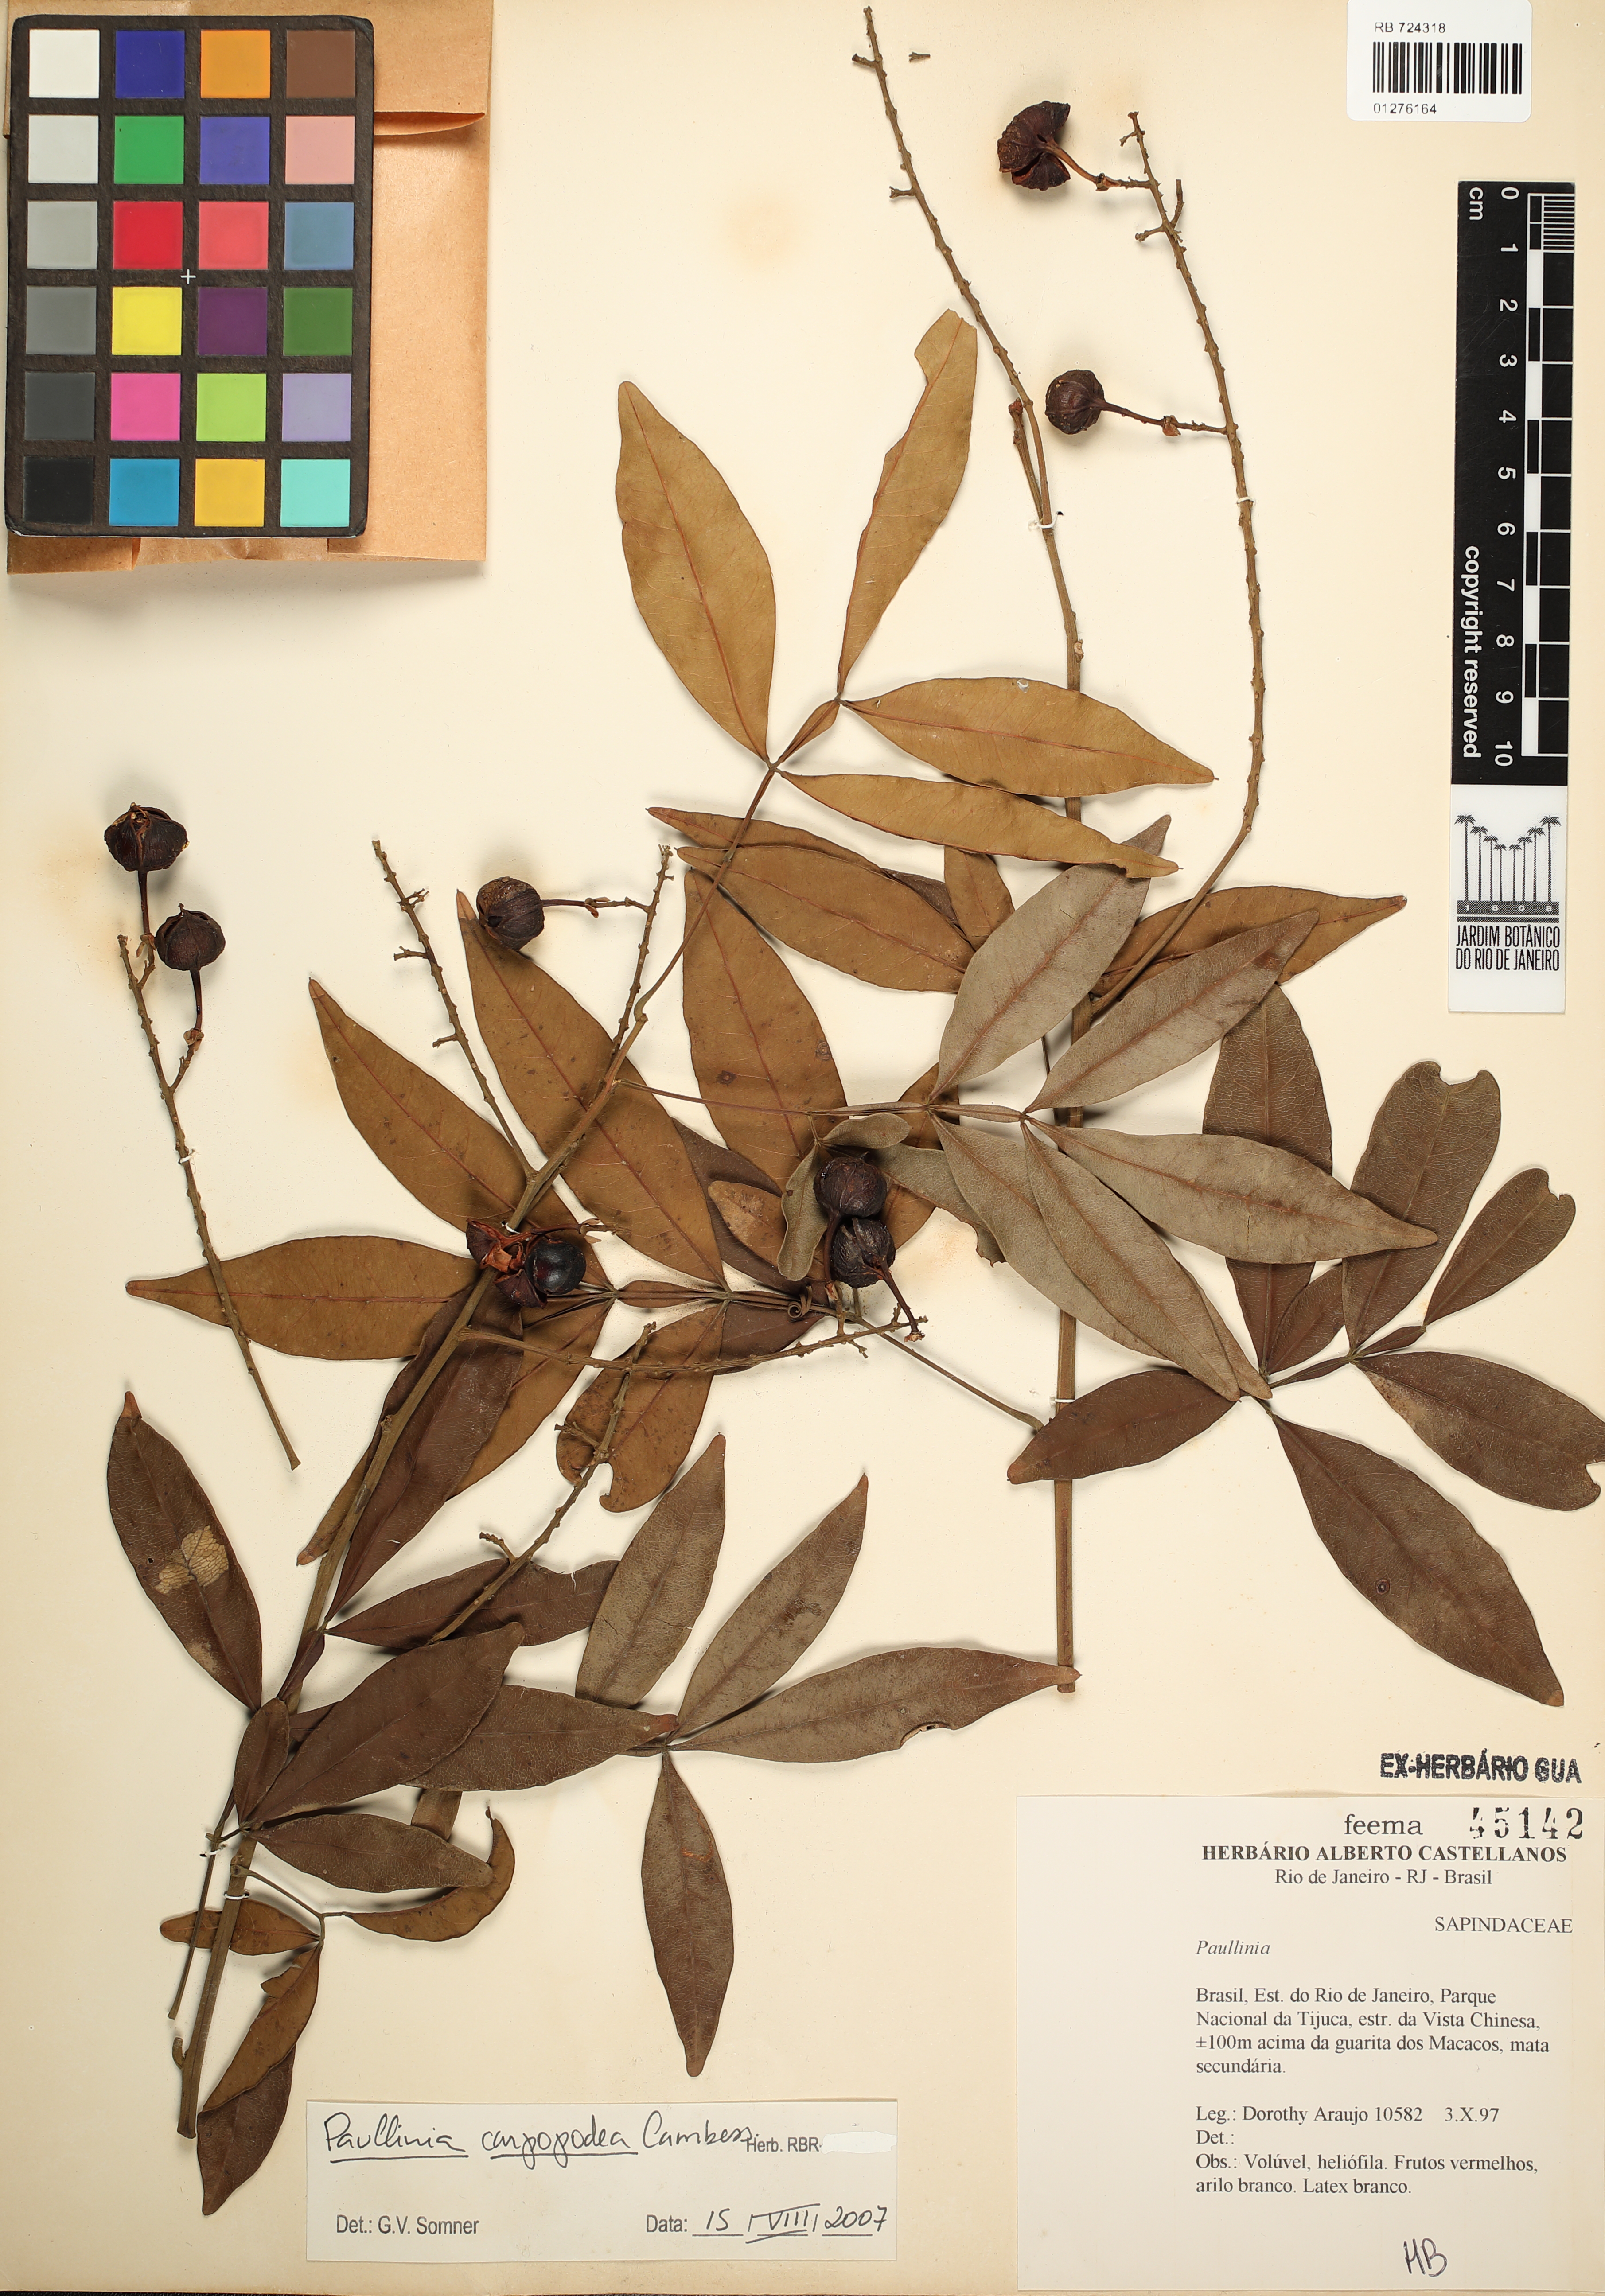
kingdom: Plantae
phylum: Tracheophyta
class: Magnoliopsida
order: Sapindales
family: Sapindaceae
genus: Paullinia
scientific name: Paullinia carpopodea
